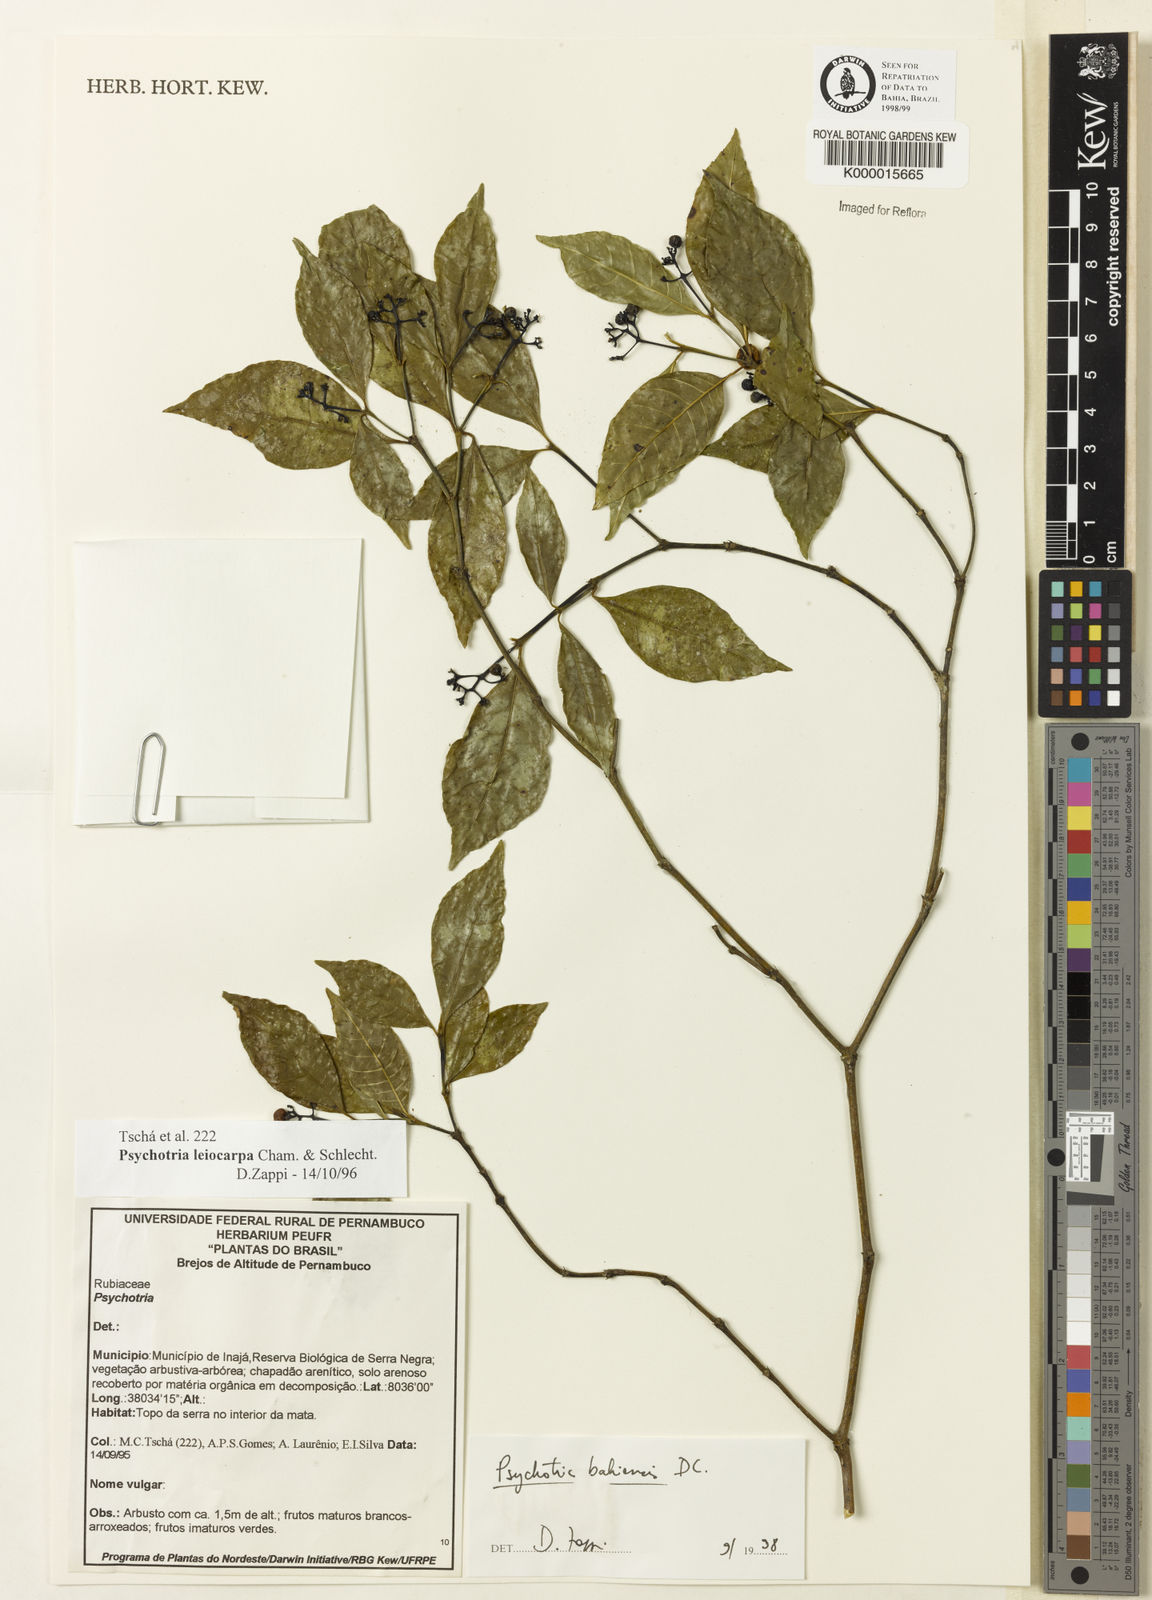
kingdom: Plantae
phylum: Tracheophyta
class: Magnoliopsida
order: Gentianales
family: Rubiaceae
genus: Psychotria
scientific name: Psychotria bahiensis
